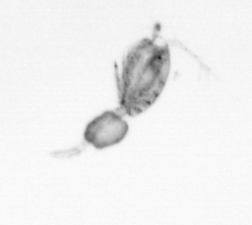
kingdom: Animalia
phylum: Arthropoda
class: Copepoda
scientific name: Copepoda
